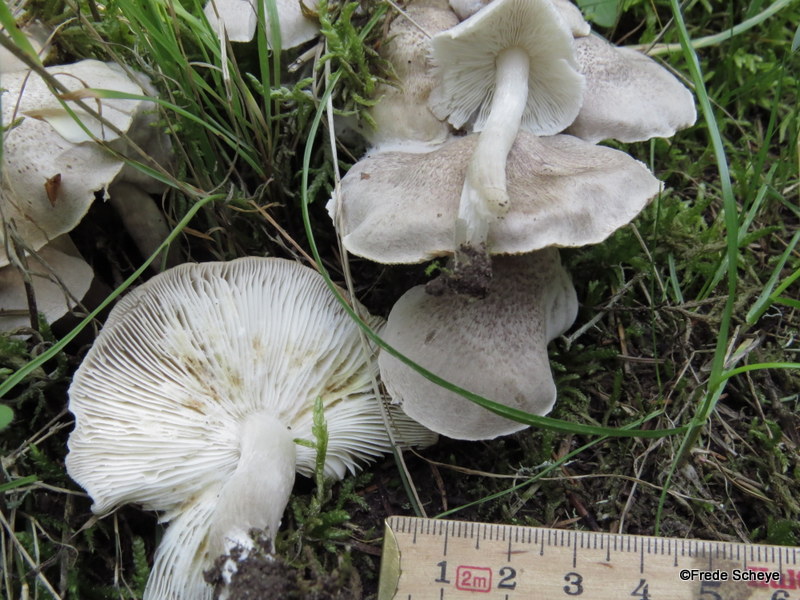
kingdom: Fungi
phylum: Basidiomycota
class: Agaricomycetes
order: Agaricales
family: Tricholomataceae
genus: Tricholoma
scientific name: Tricholoma scalpturatum
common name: gulplettet ridderhat
